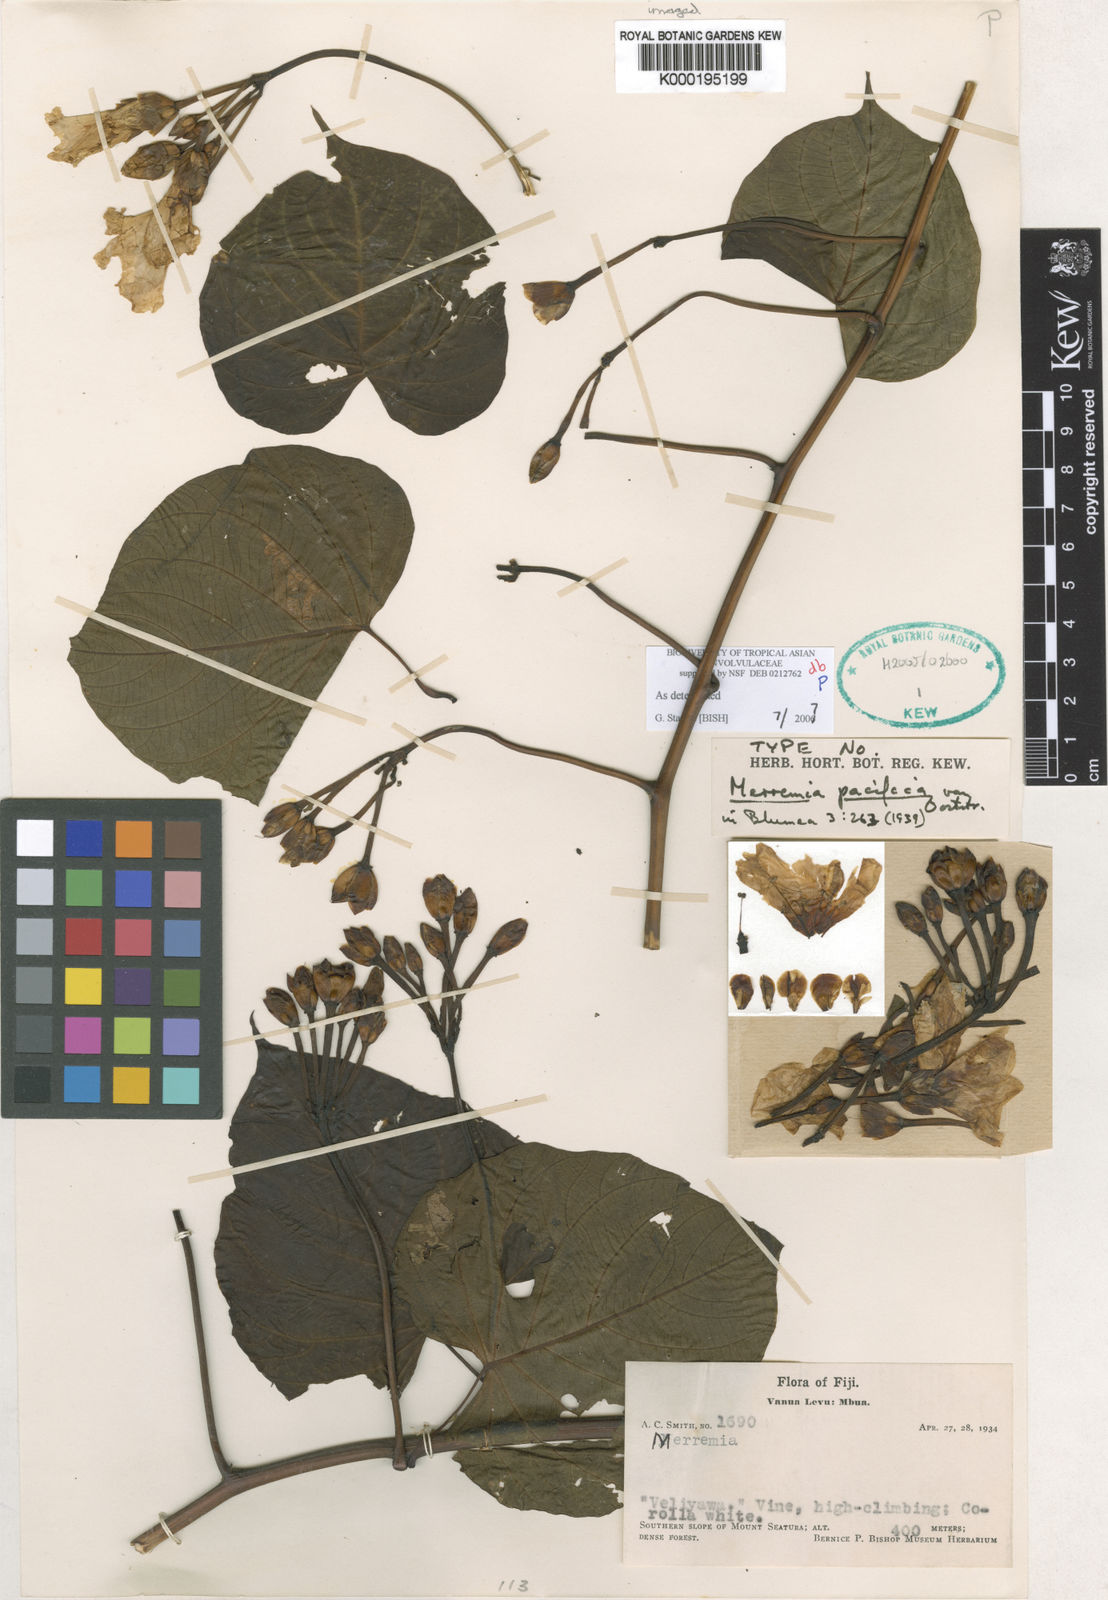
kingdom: Plantae
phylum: Tracheophyta
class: Magnoliopsida
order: Solanales
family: Convolvulaceae
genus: Decalobanthus
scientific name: Decalobanthus pacificus
